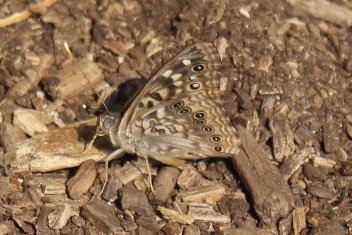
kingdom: Animalia
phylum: Arthropoda
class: Insecta
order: Lepidoptera
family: Nymphalidae
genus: Asterocampa
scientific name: Asterocampa celtis
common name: Hackberry Emperor
